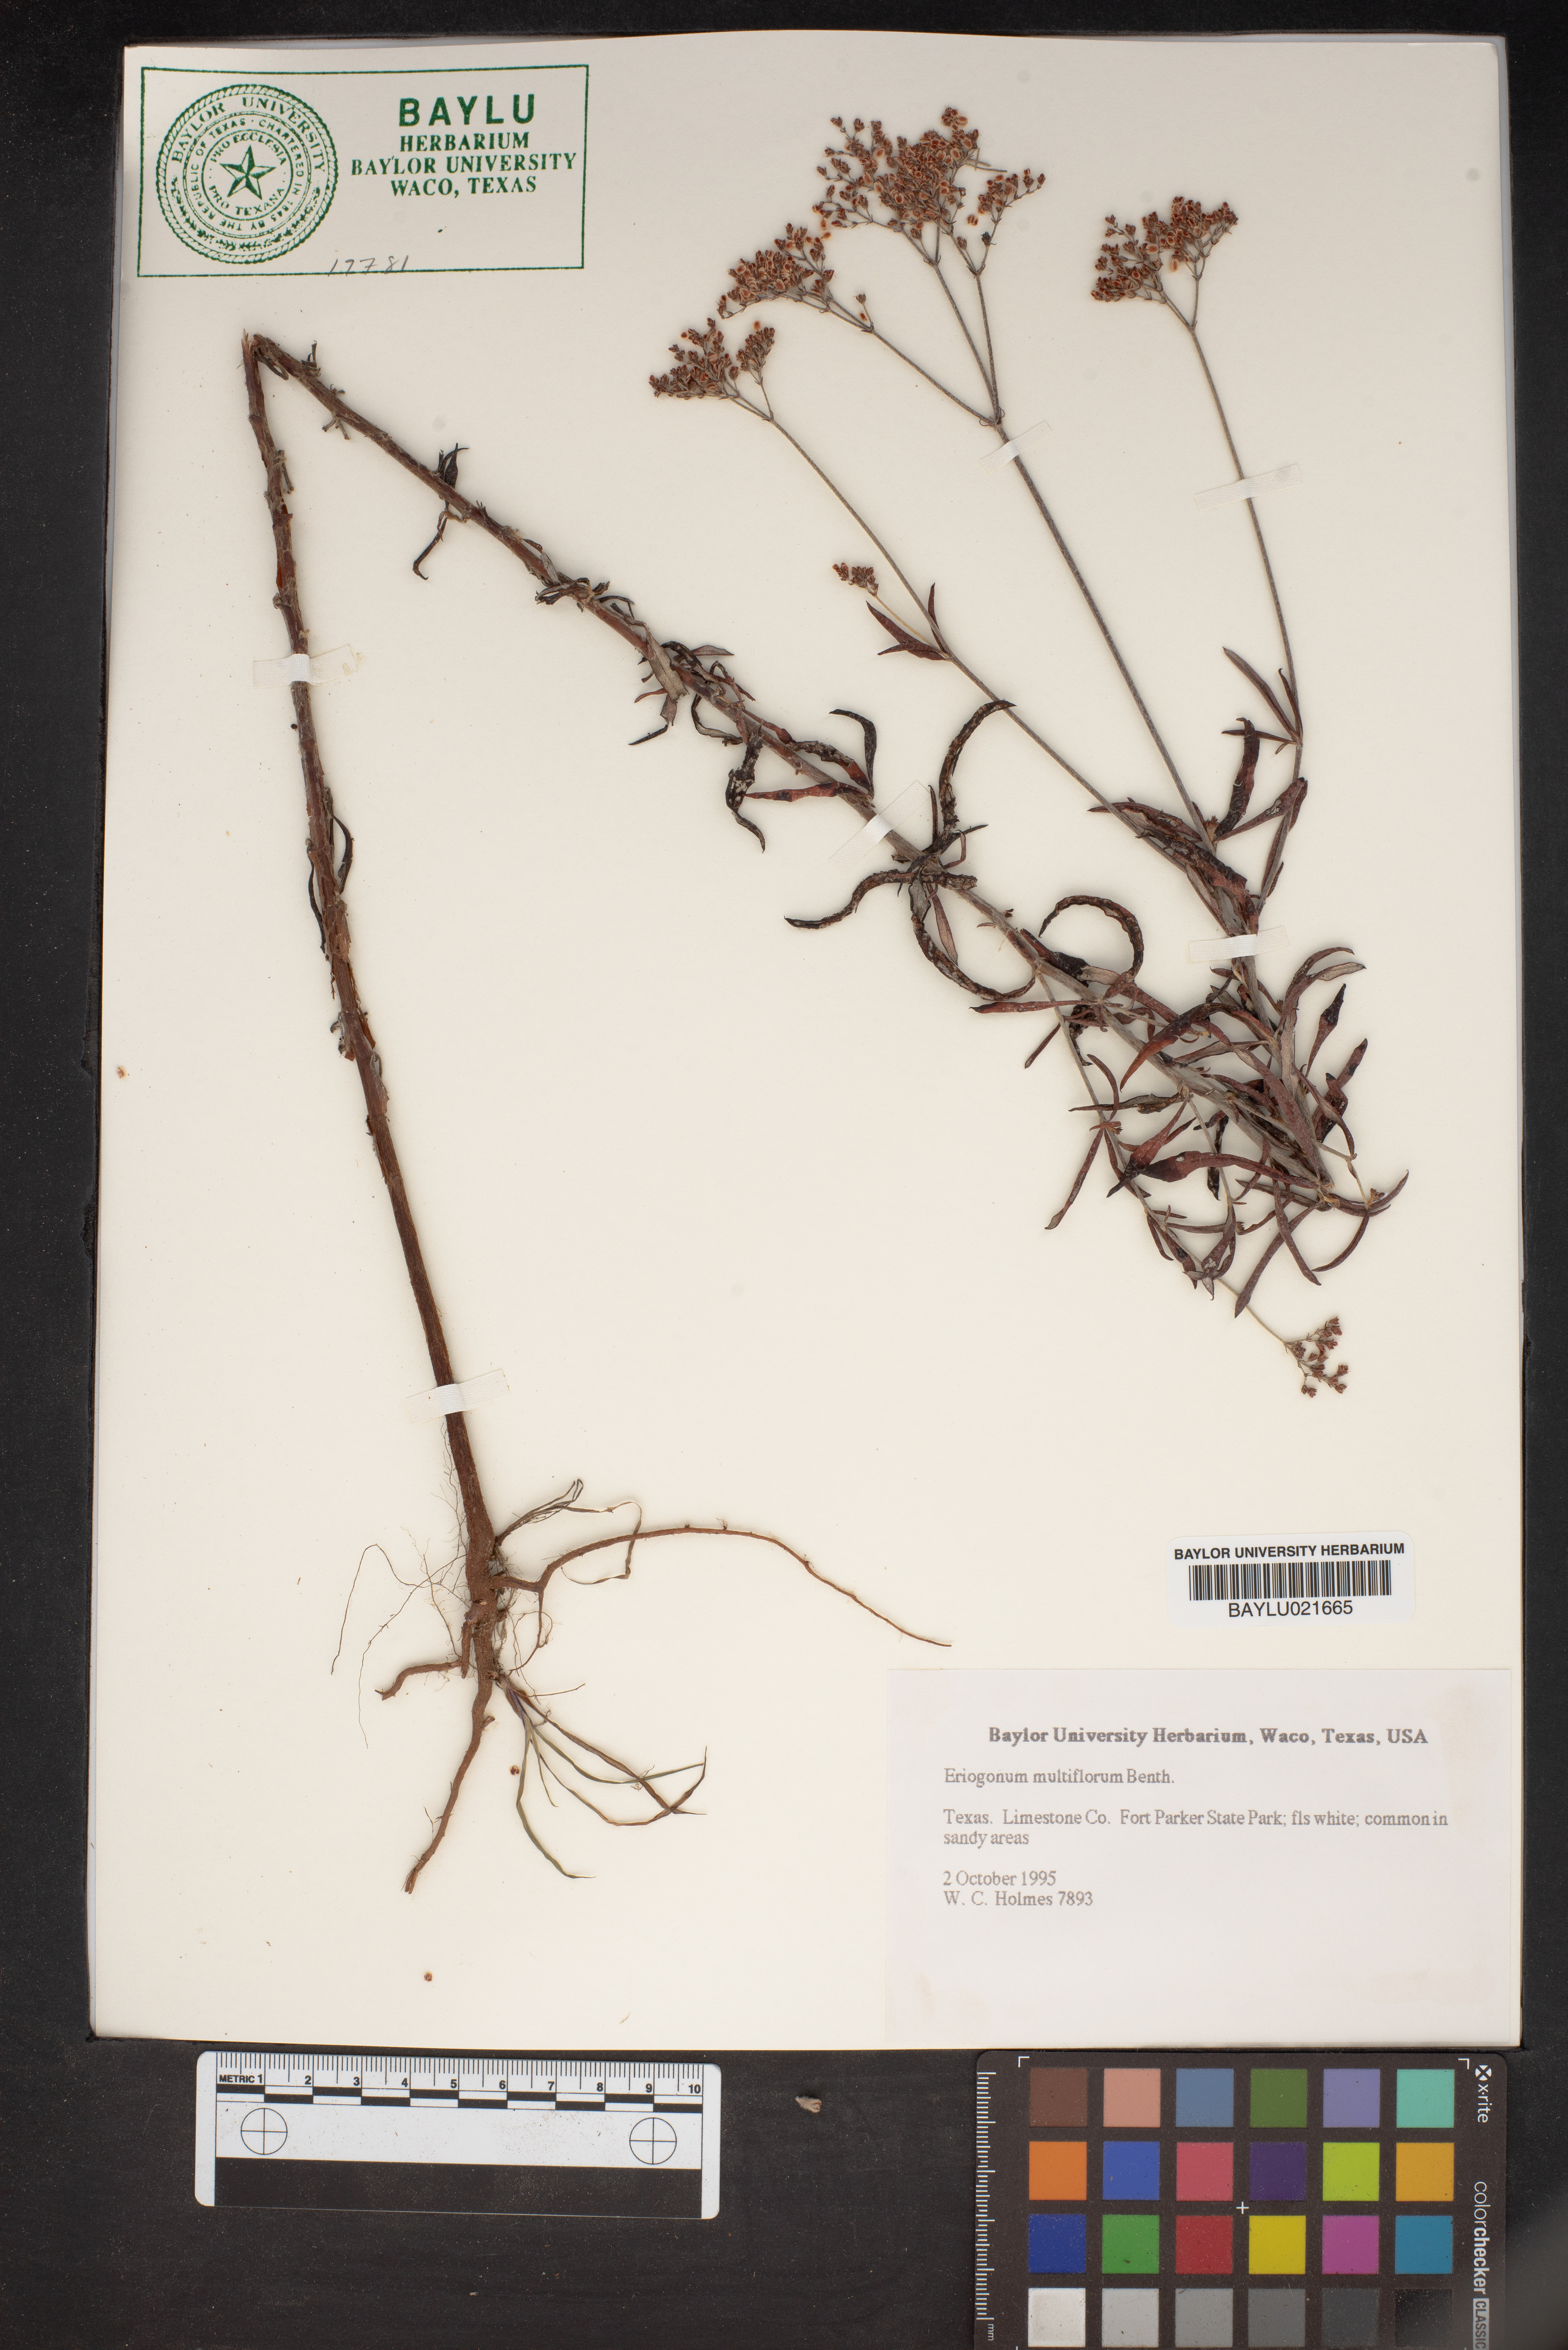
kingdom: Plantae
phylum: Tracheophyta
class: Magnoliopsida
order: Caryophyllales
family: Polygonaceae
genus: Eriogonum
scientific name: Eriogonum multiflorum
